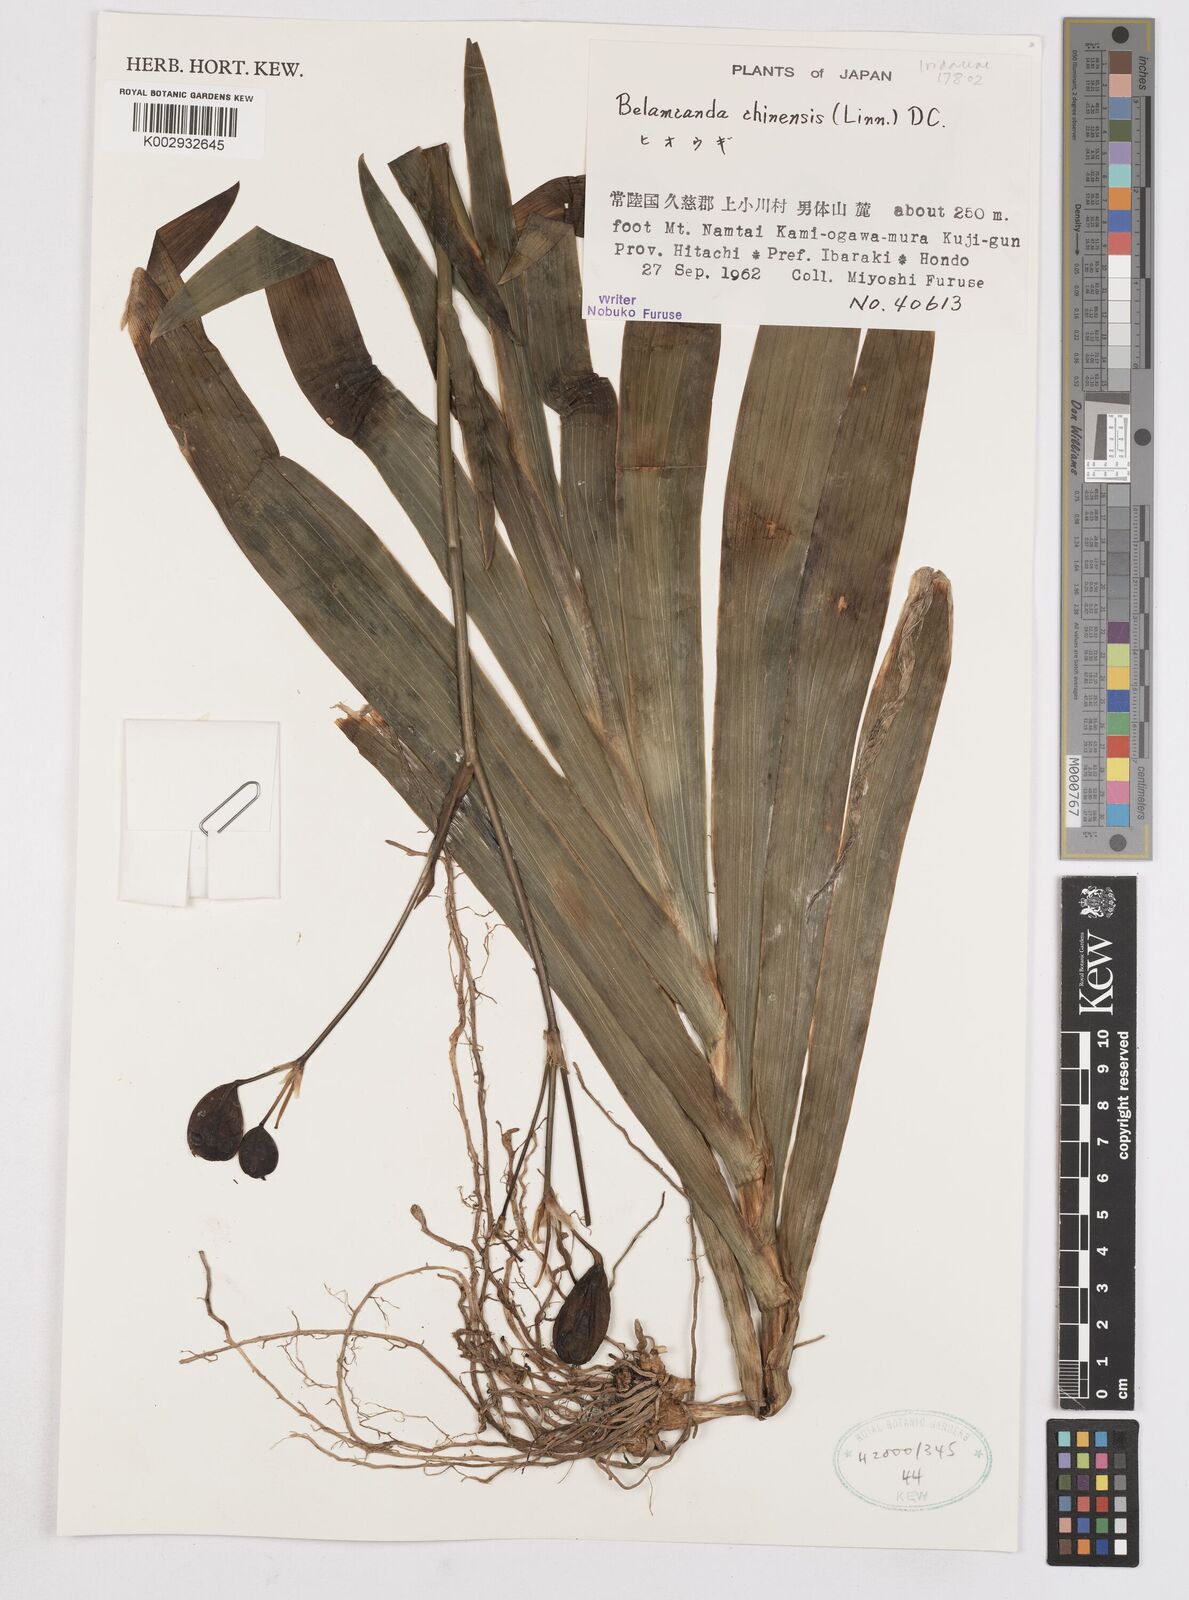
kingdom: Plantae
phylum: Tracheophyta
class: Liliopsida
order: Asparagales
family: Iridaceae
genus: Iris
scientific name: Iris
